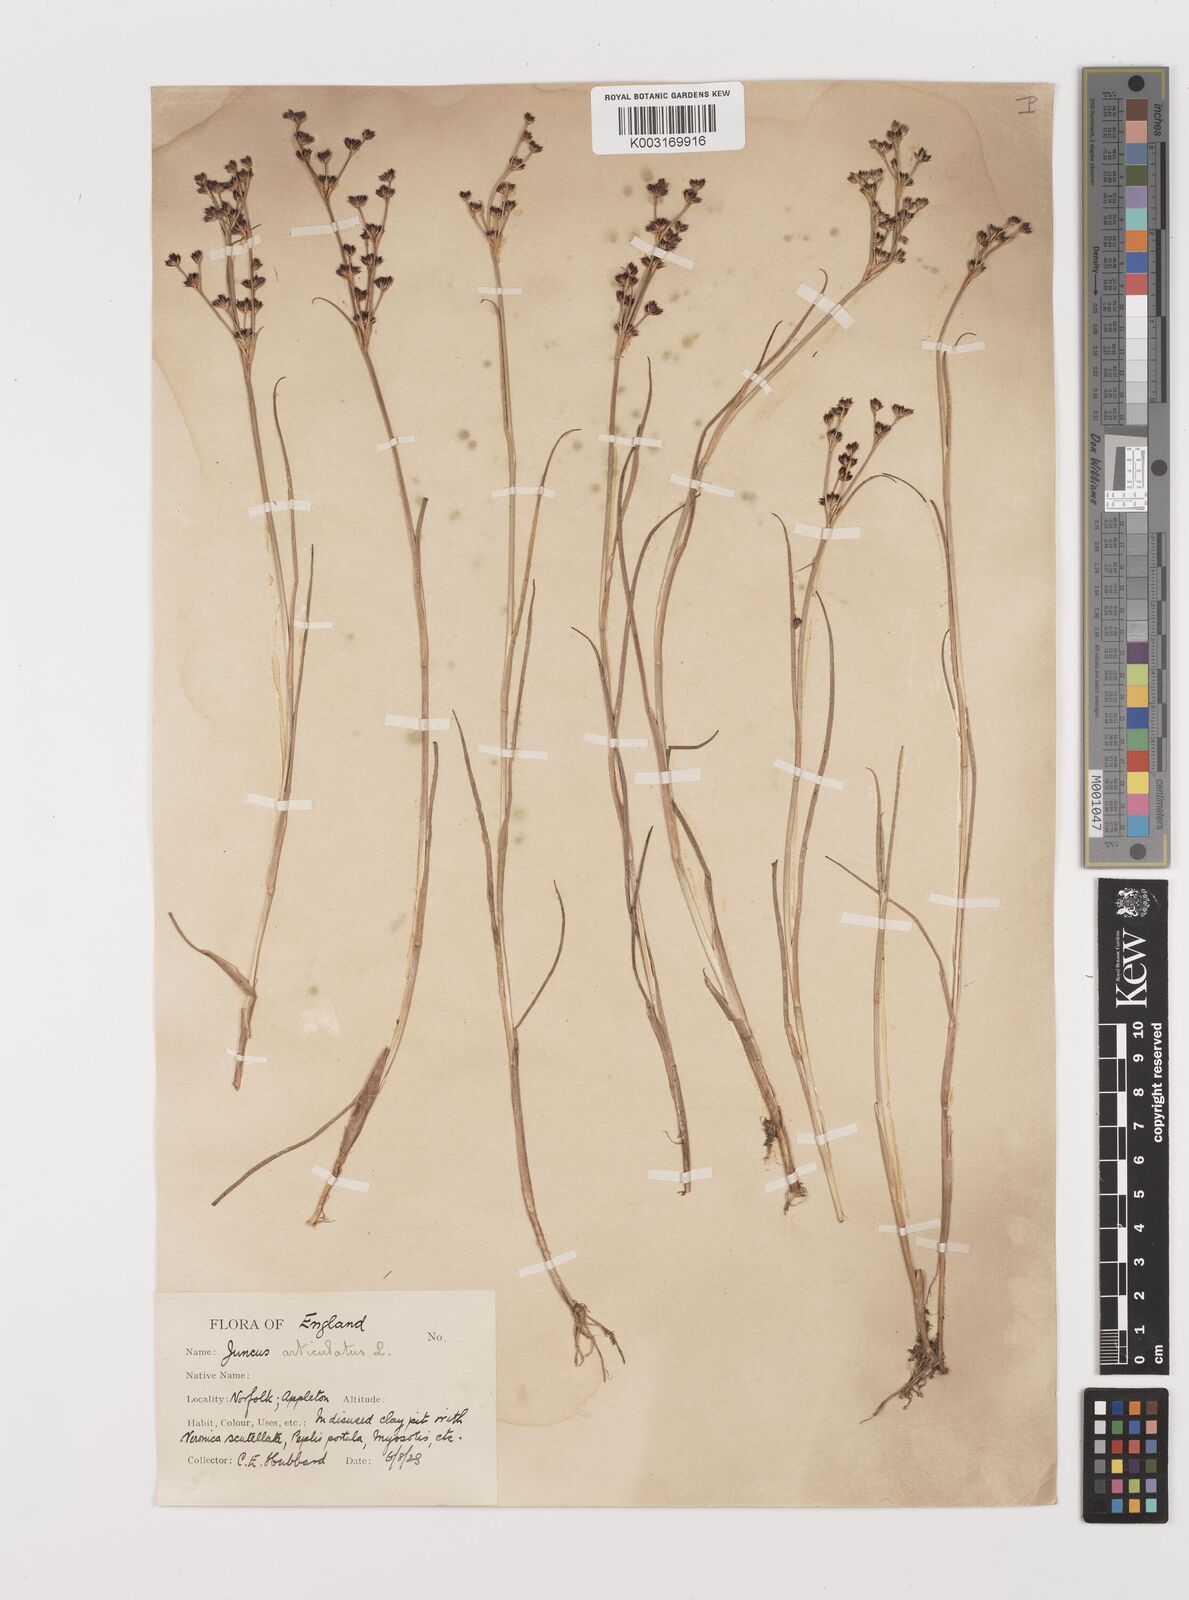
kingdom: Plantae
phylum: Tracheophyta
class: Liliopsida
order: Poales
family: Juncaceae
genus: Juncus
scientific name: Juncus articulatus
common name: Jointed rush
